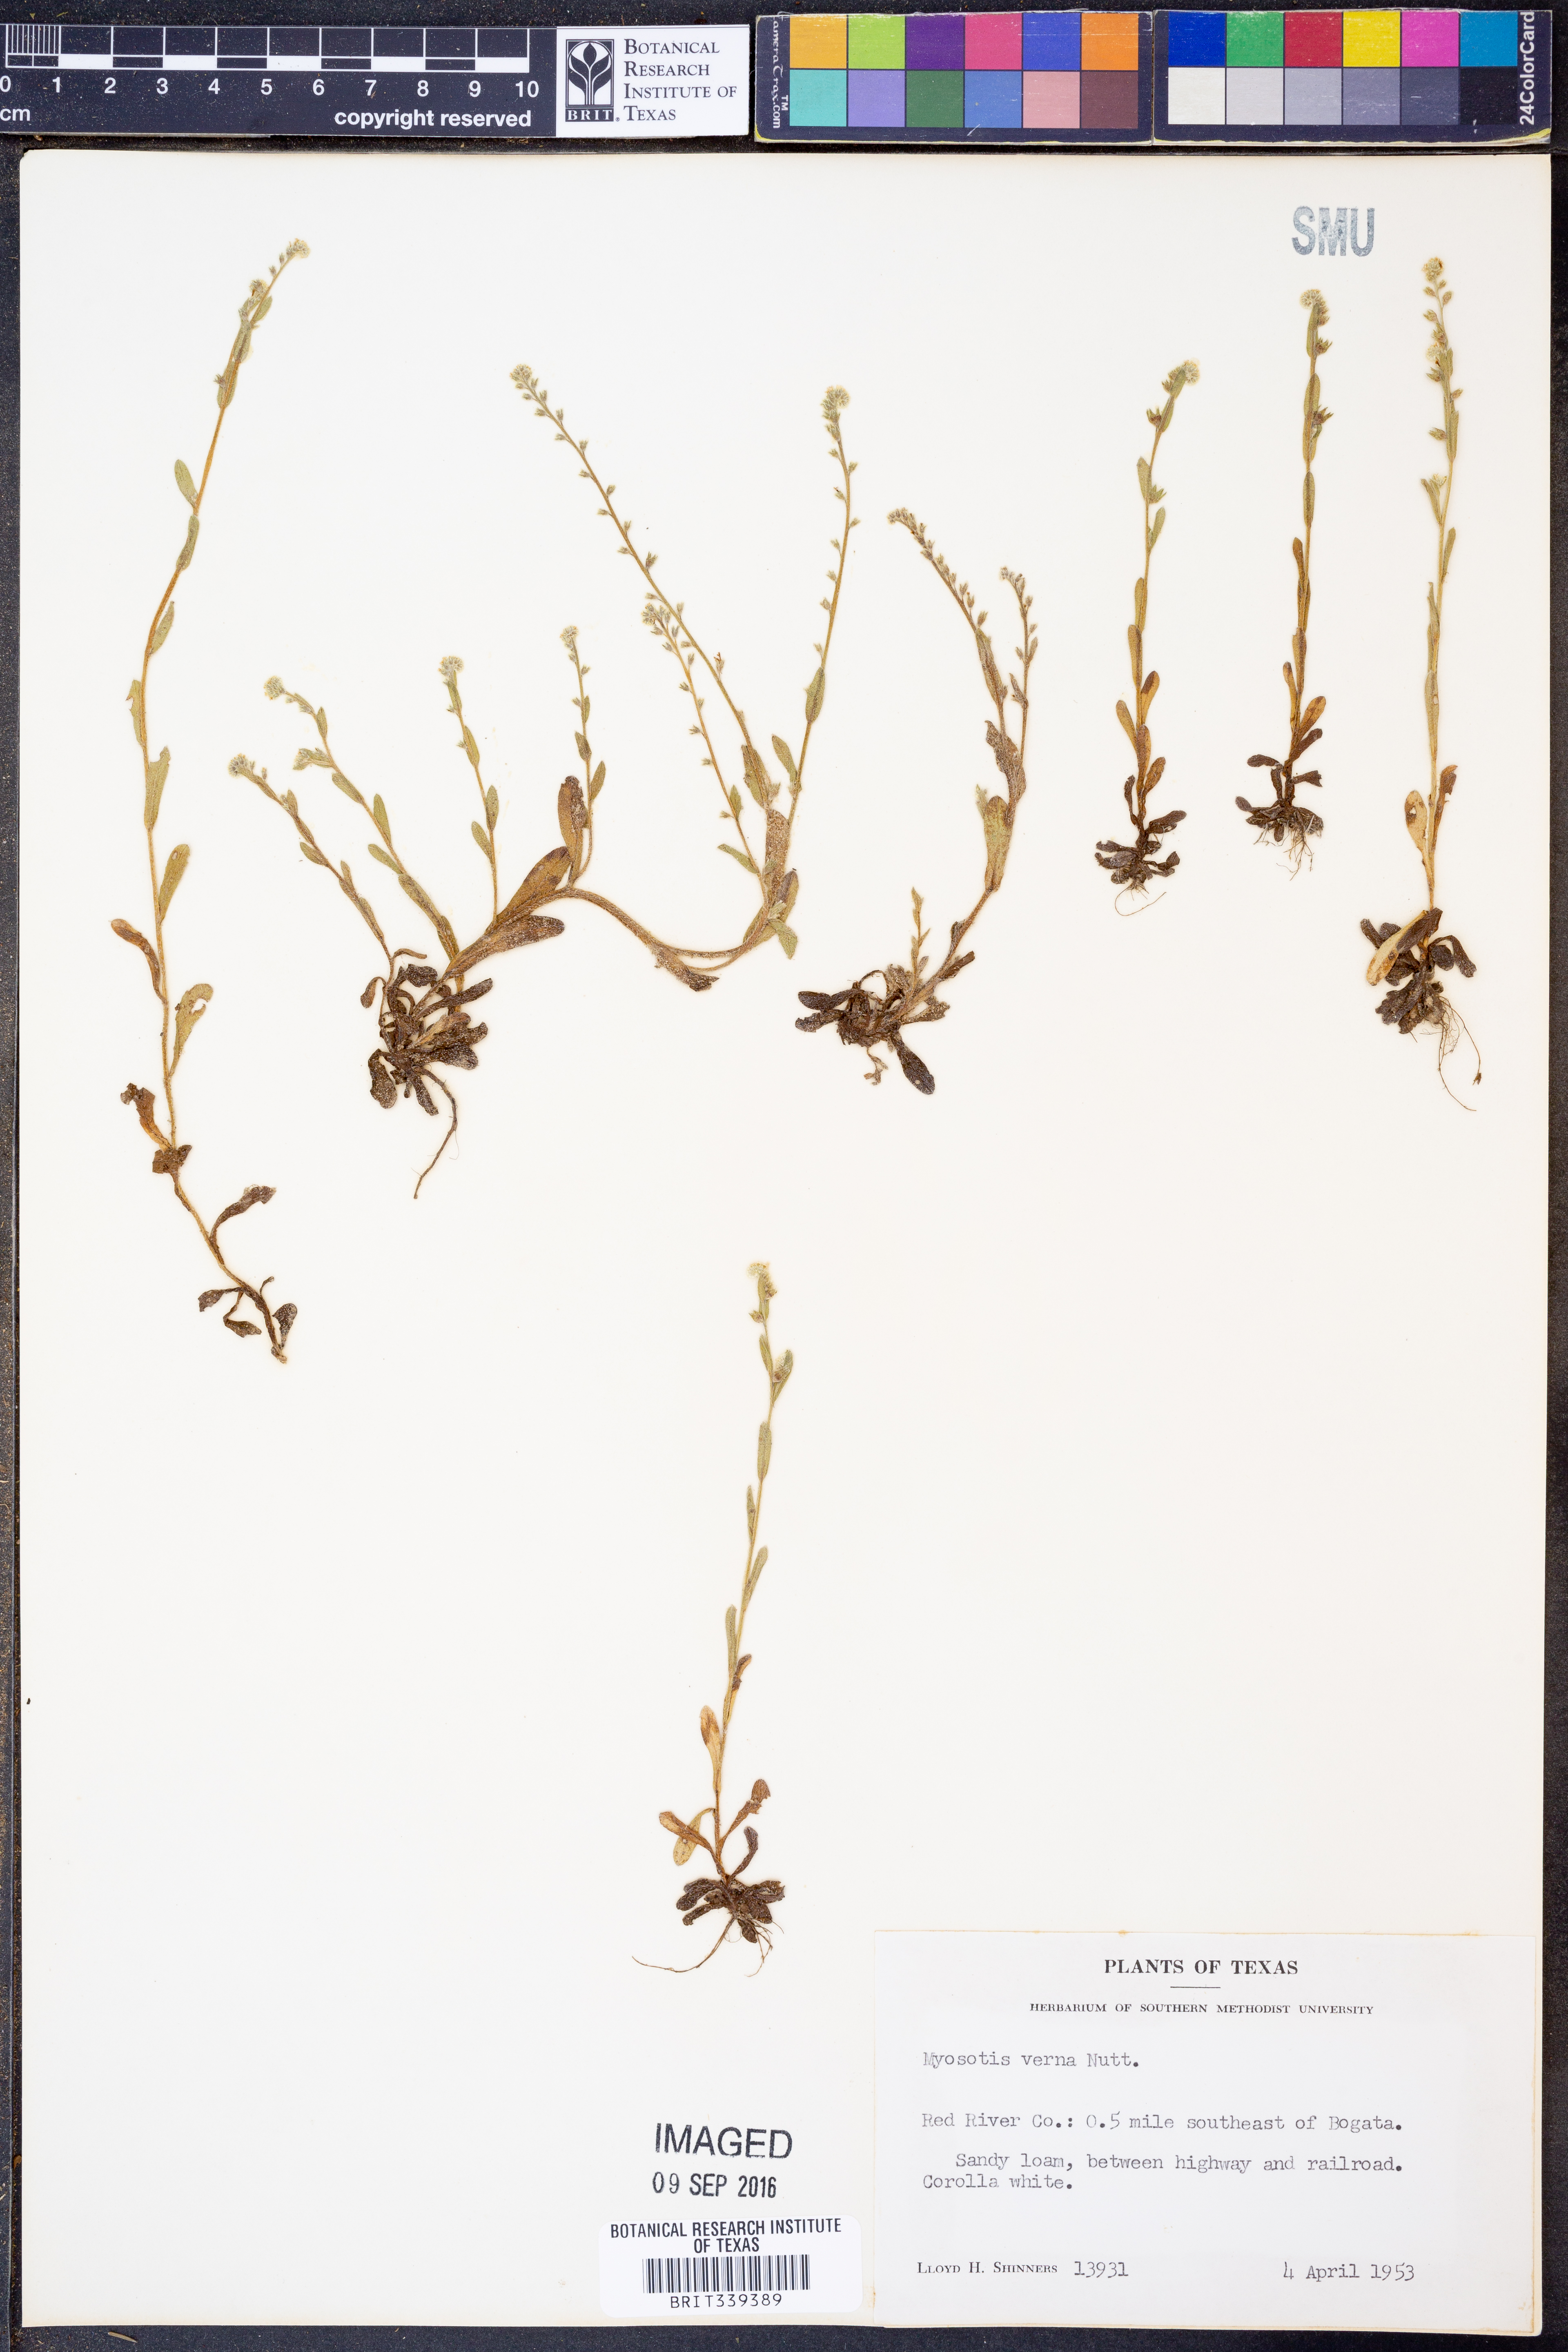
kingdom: Plantae
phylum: Tracheophyta
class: Magnoliopsida
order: Boraginales
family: Boraginaceae
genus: Myosotis
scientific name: Myosotis verna
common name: Early forget-me-not
